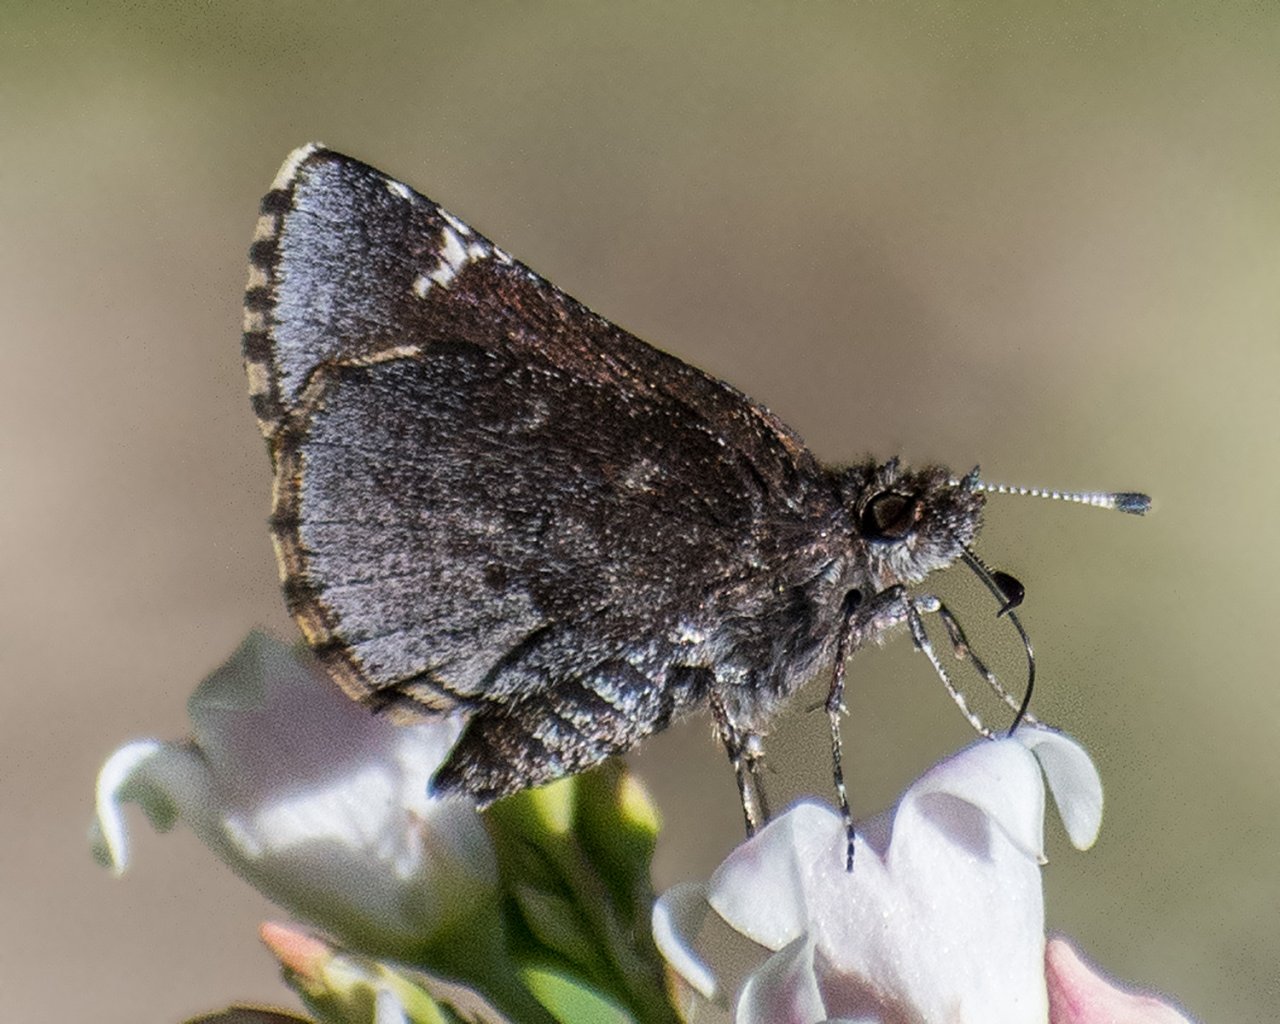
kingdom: Animalia
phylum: Arthropoda
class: Insecta
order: Lepidoptera
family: Hesperiidae
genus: Mastor
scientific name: Mastor vialis
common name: Common Roadside-Skipper
